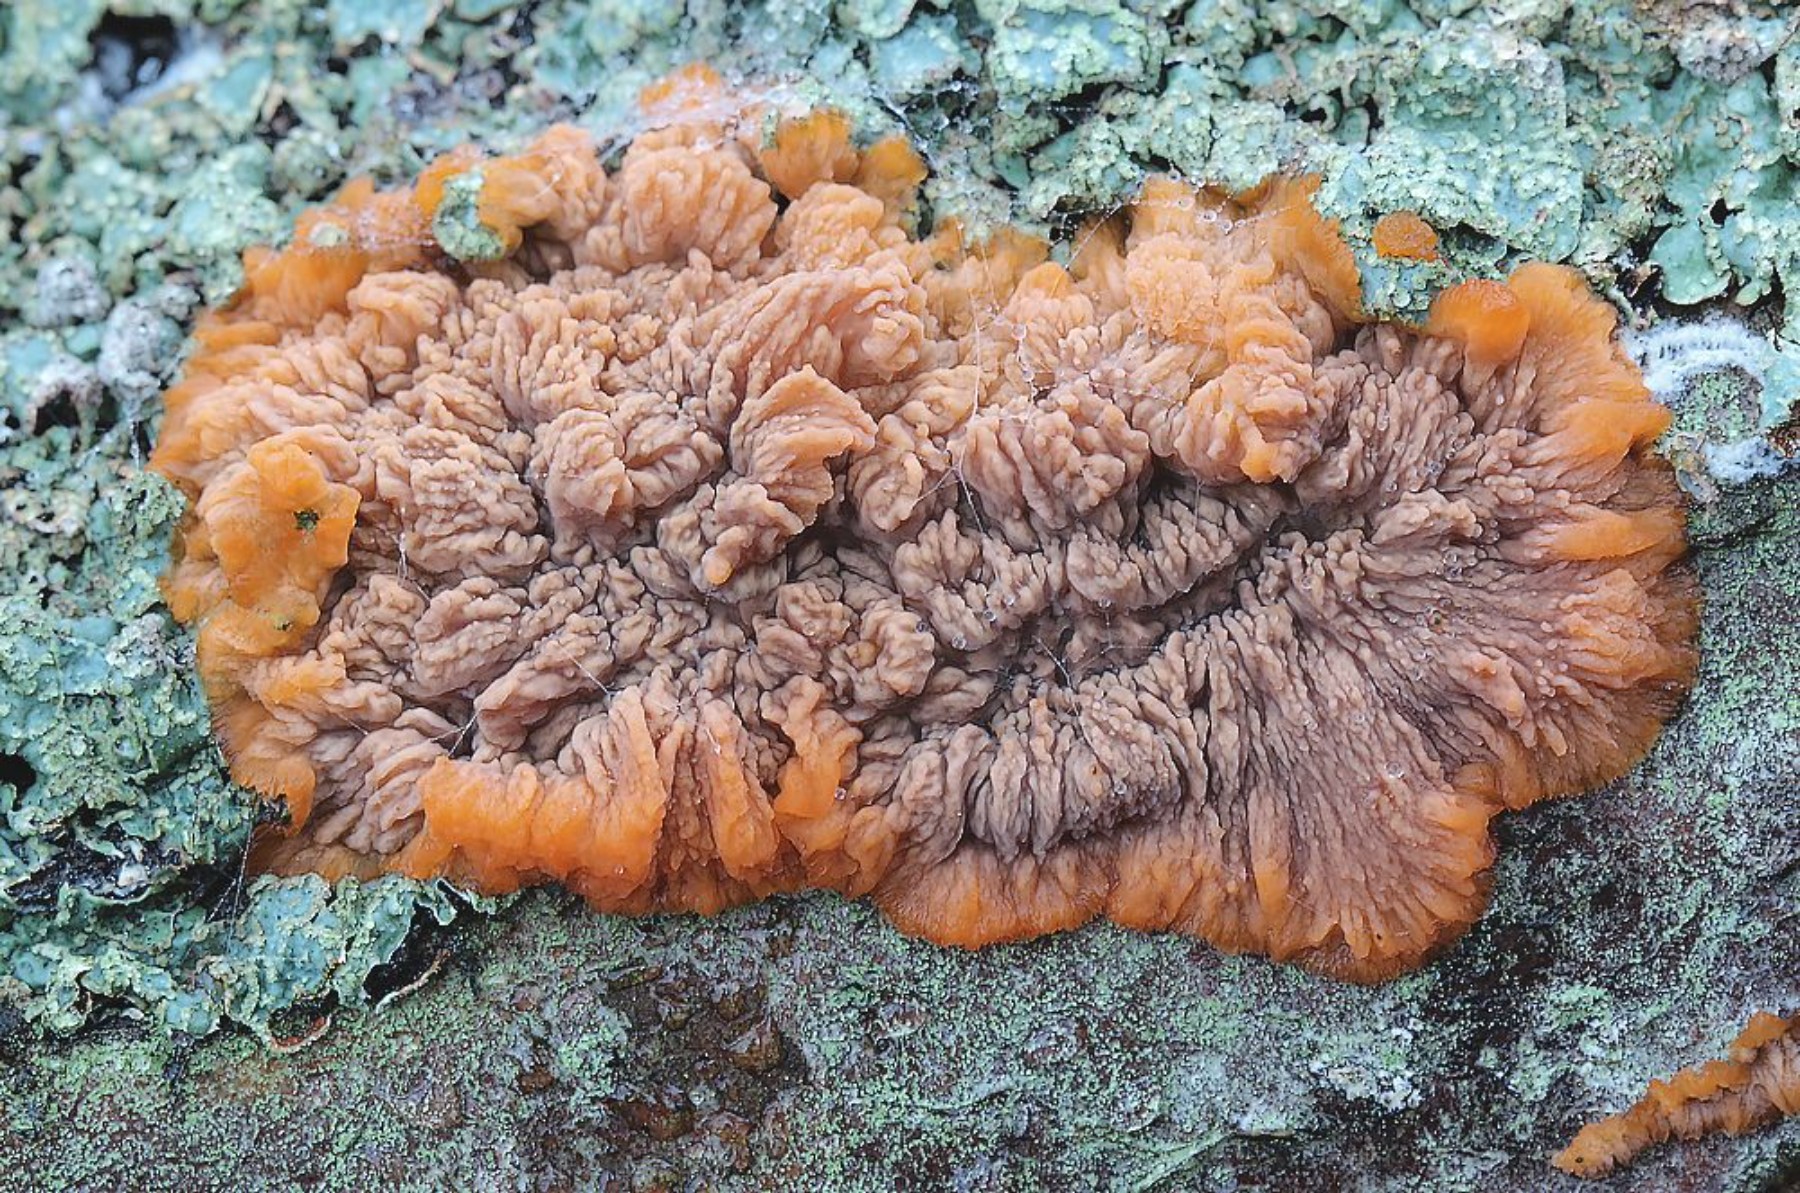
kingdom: Fungi
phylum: Basidiomycota
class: Agaricomycetes
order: Polyporales
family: Meruliaceae
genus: Phlebia
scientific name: Phlebia radiata
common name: stråle-åresvamp
